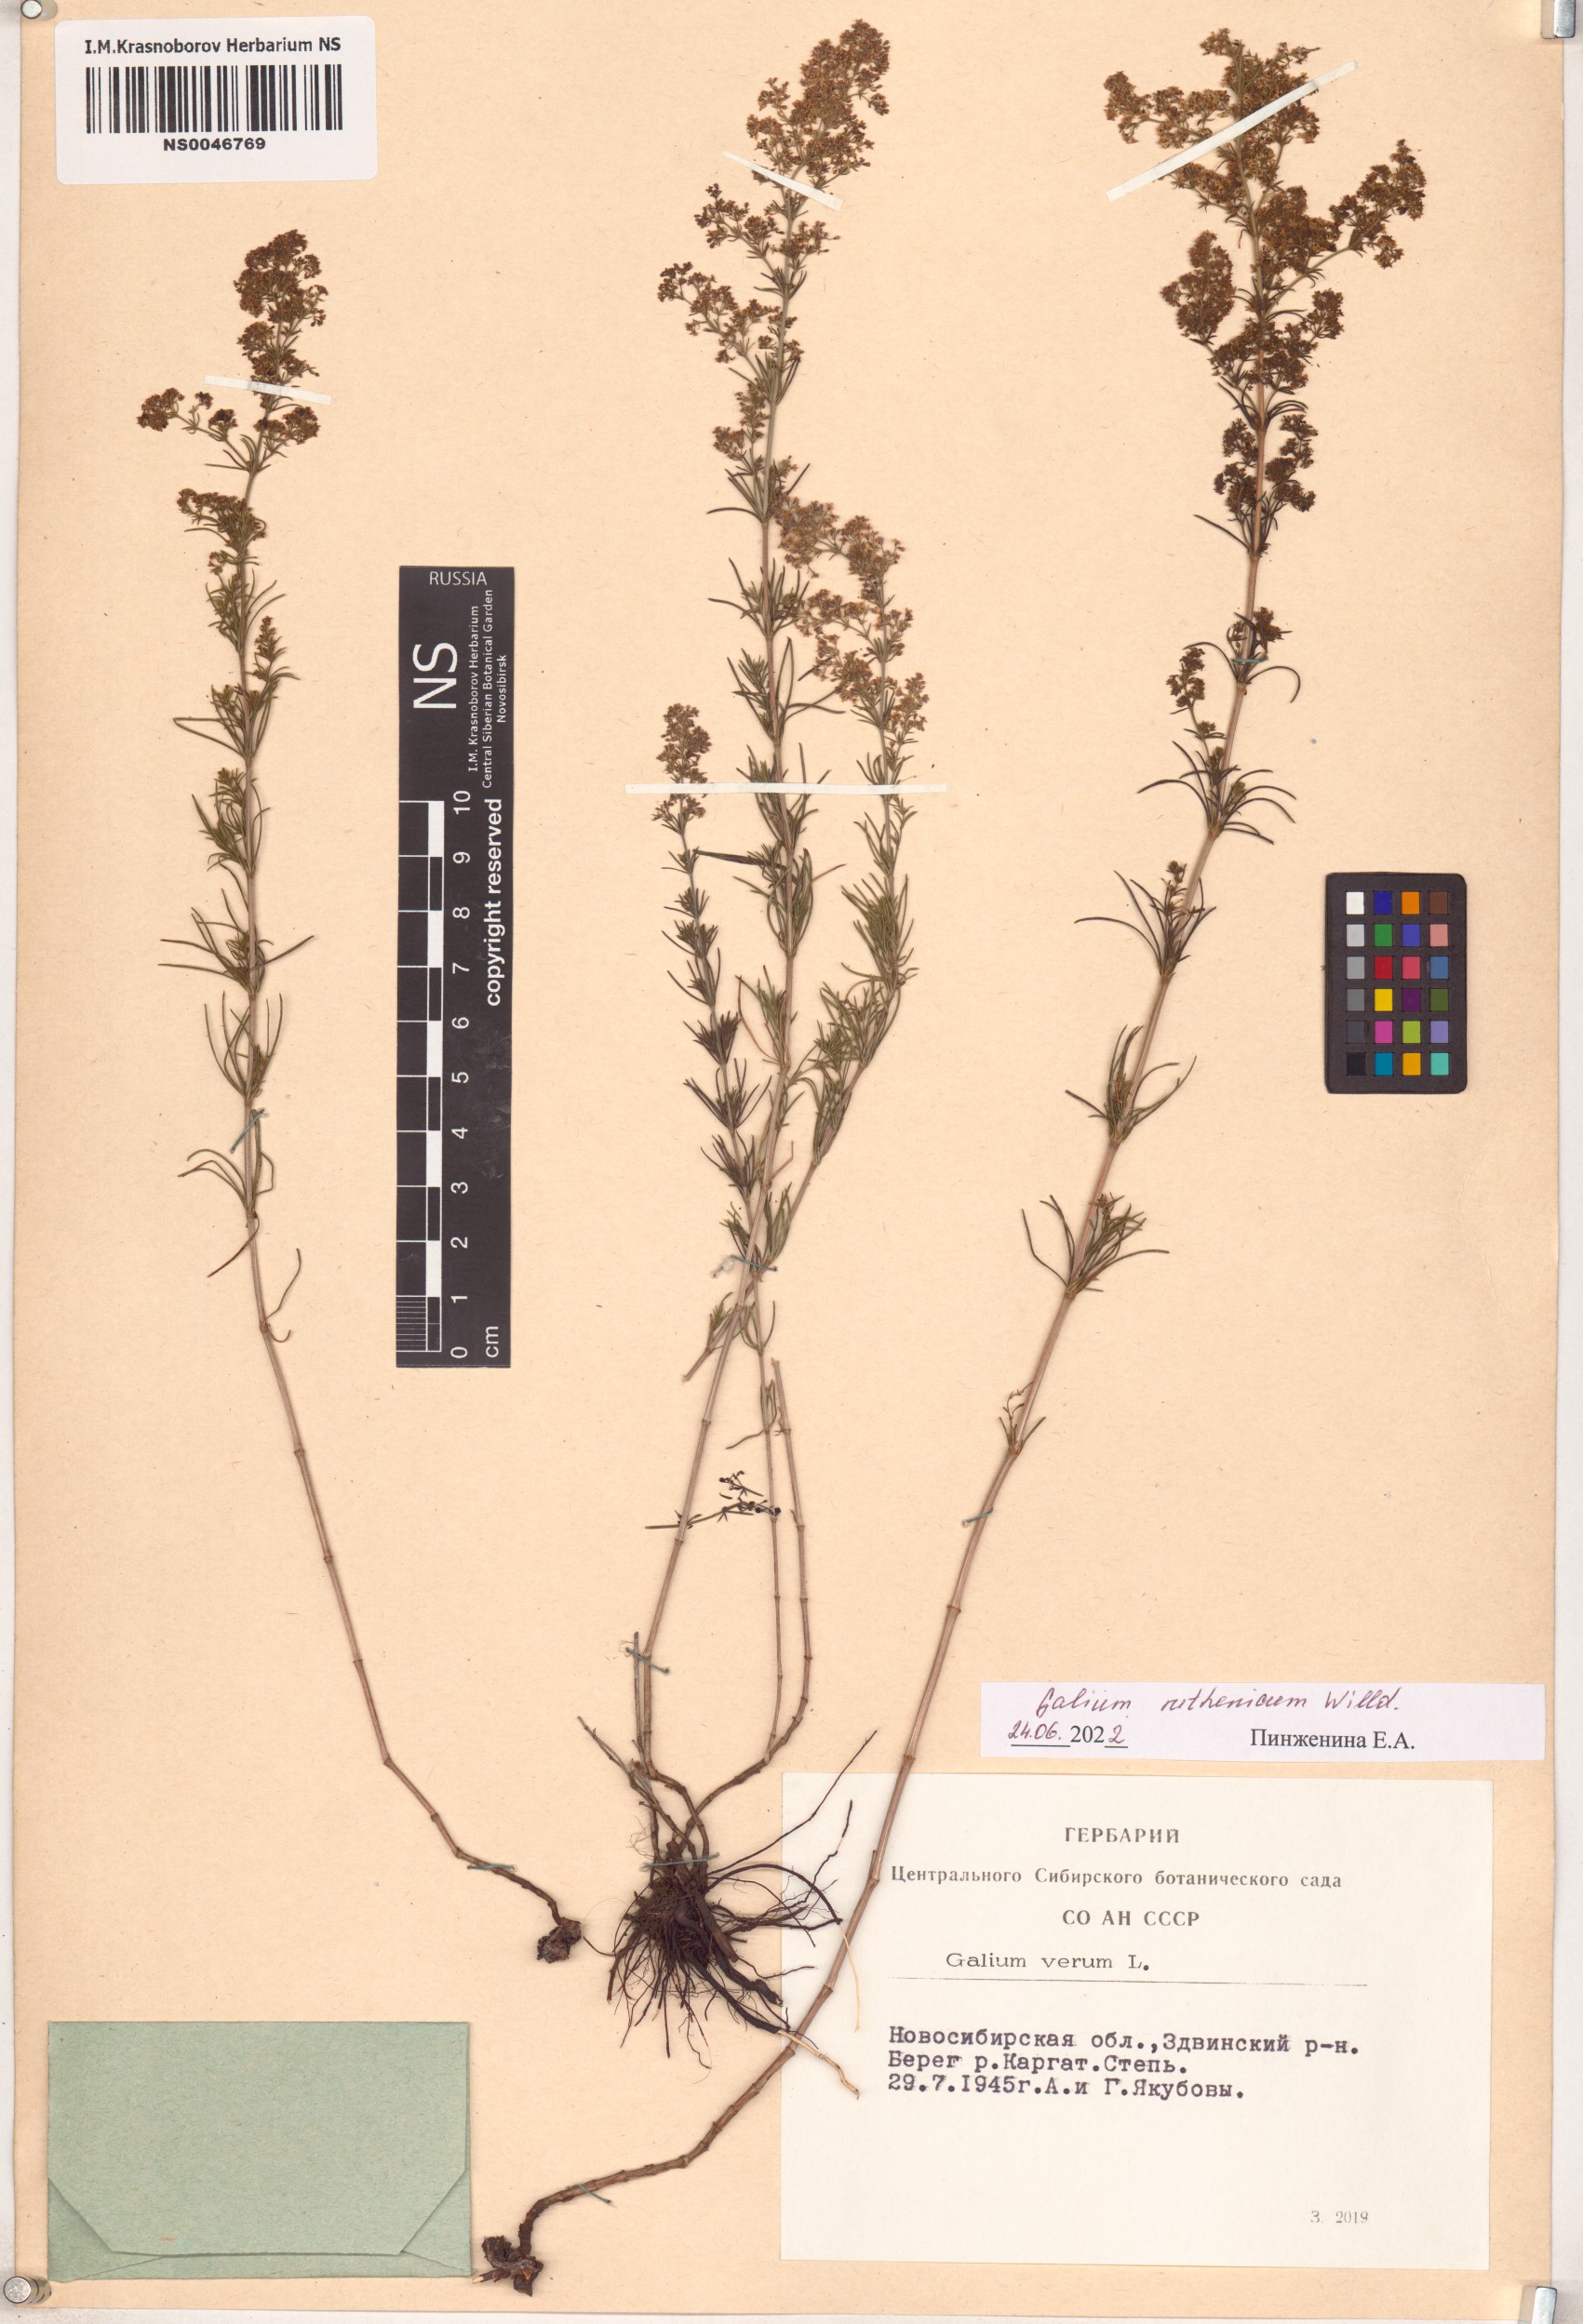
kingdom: Plantae
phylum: Tracheophyta
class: Magnoliopsida
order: Gentianales
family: Rubiaceae
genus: Galium
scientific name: Galium verum
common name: Lady's bedstraw
